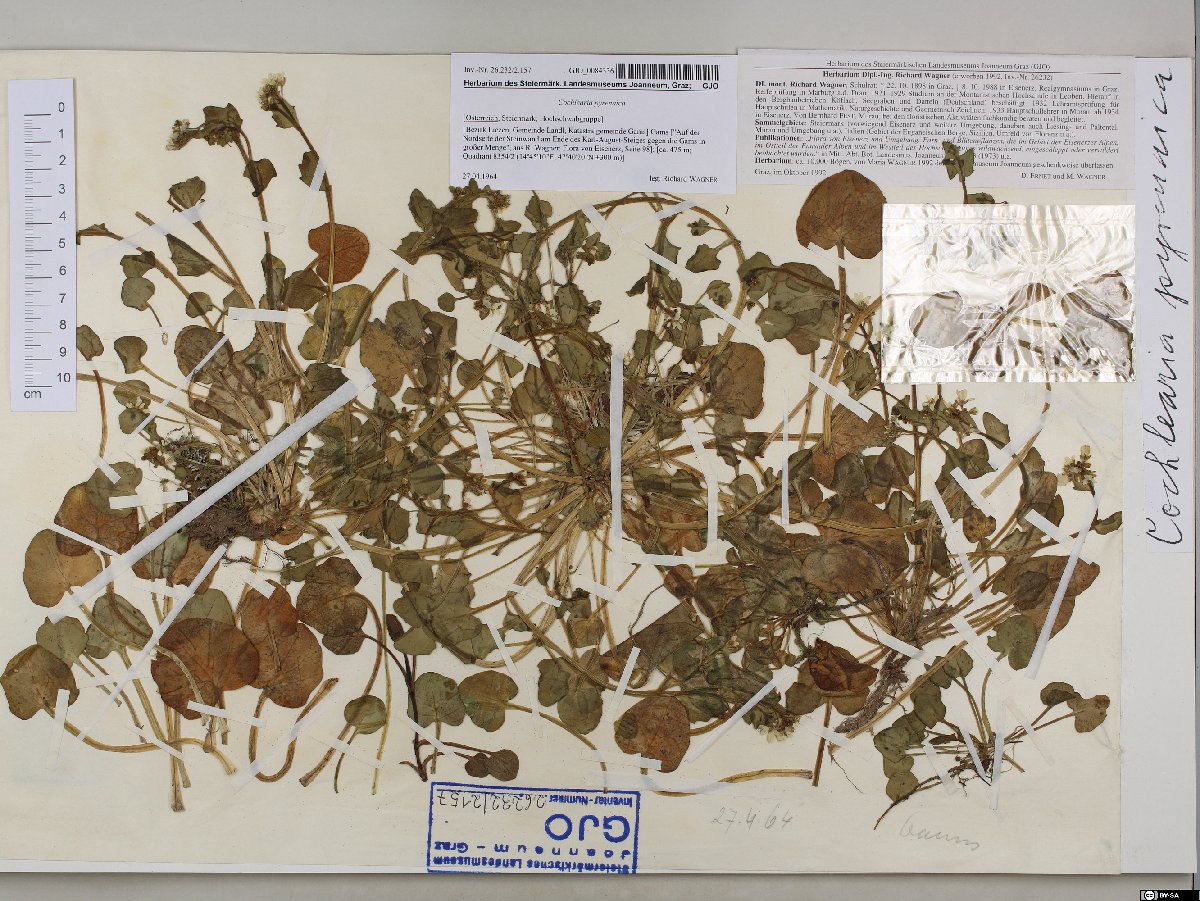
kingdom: Plantae
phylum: Tracheophyta
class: Magnoliopsida
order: Brassicales
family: Brassicaceae
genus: Cochlearia
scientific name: Cochlearia pyrenaica
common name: Upland scurvy-grass
